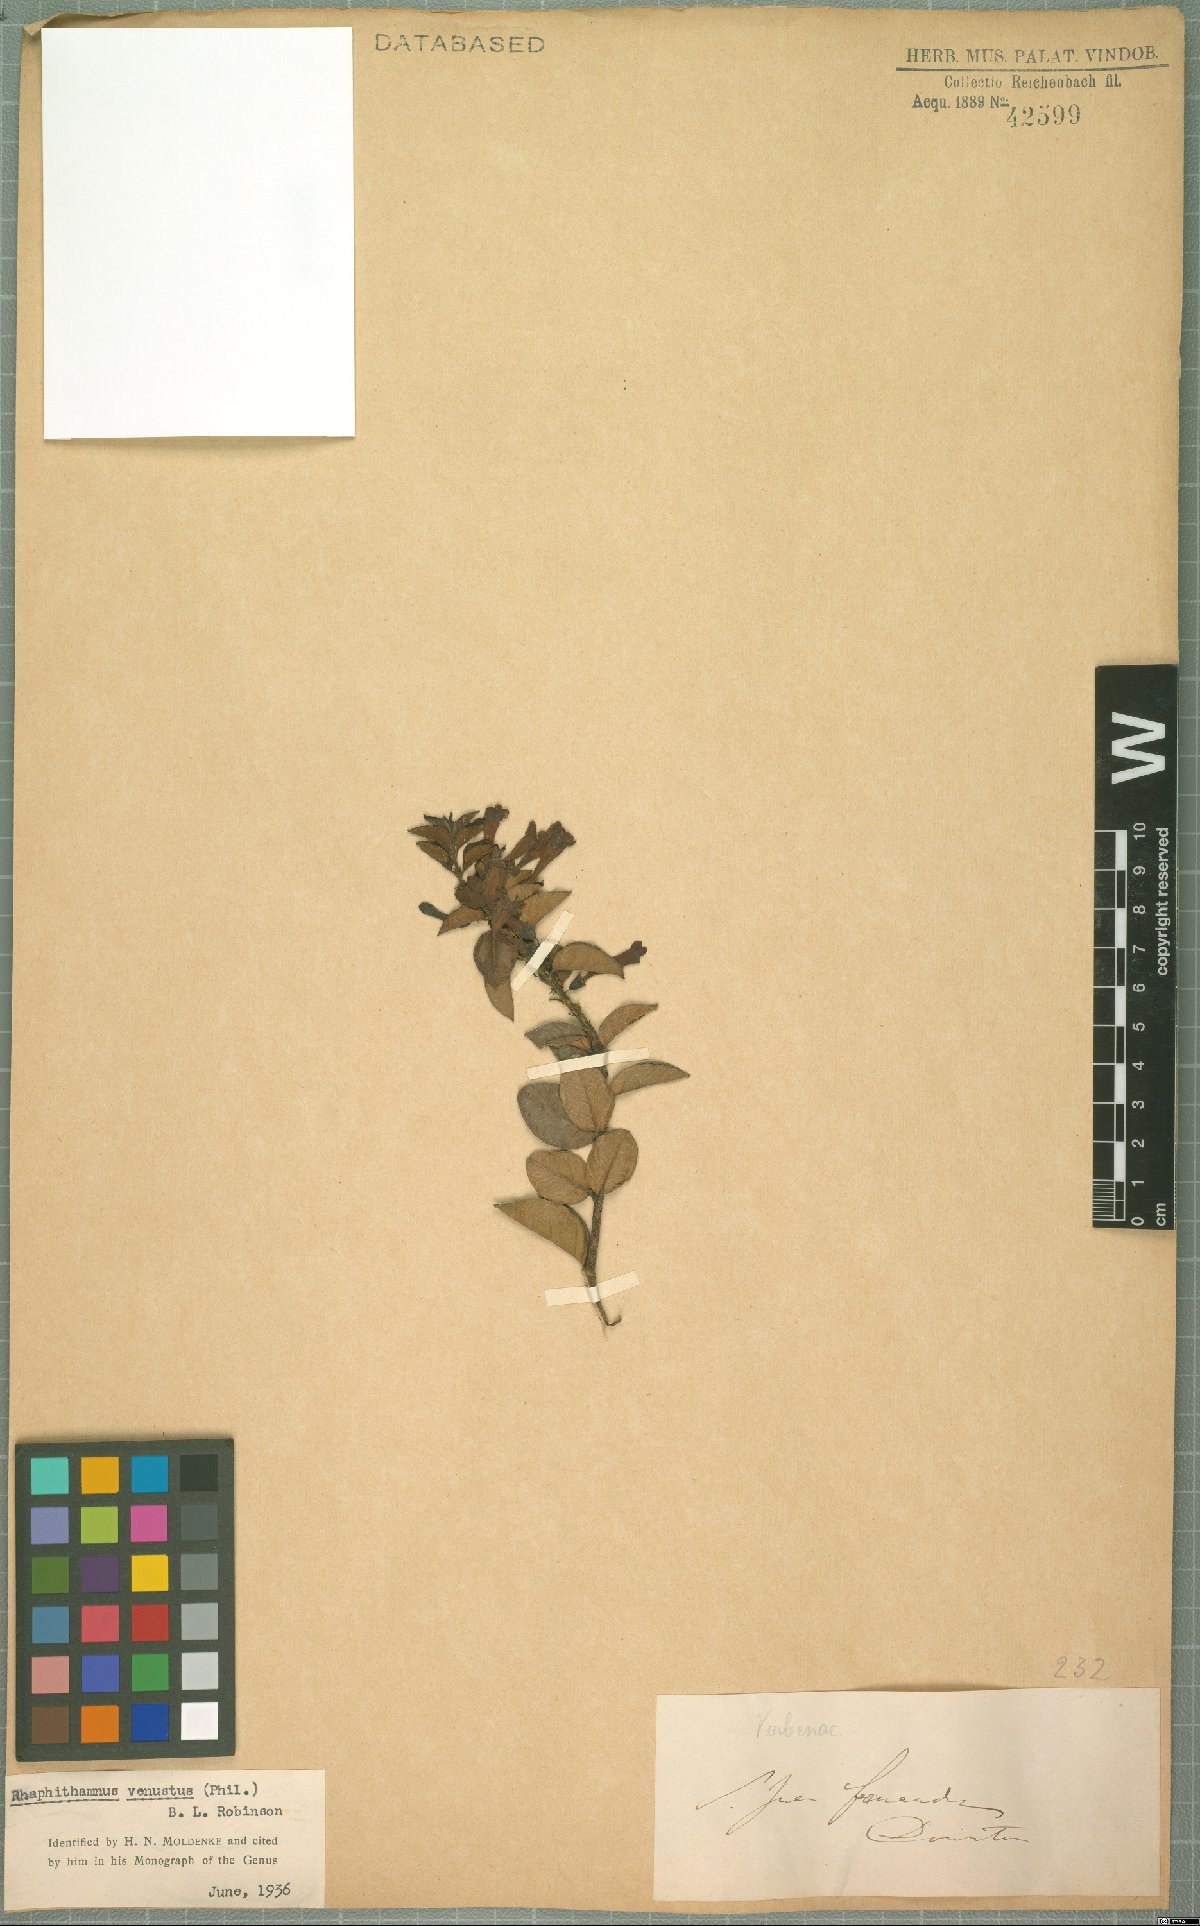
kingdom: Plantae
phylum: Tracheophyta
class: Magnoliopsida
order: Lamiales
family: Verbenaceae
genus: Rhaphithamnus
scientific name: Rhaphithamnus venustus
